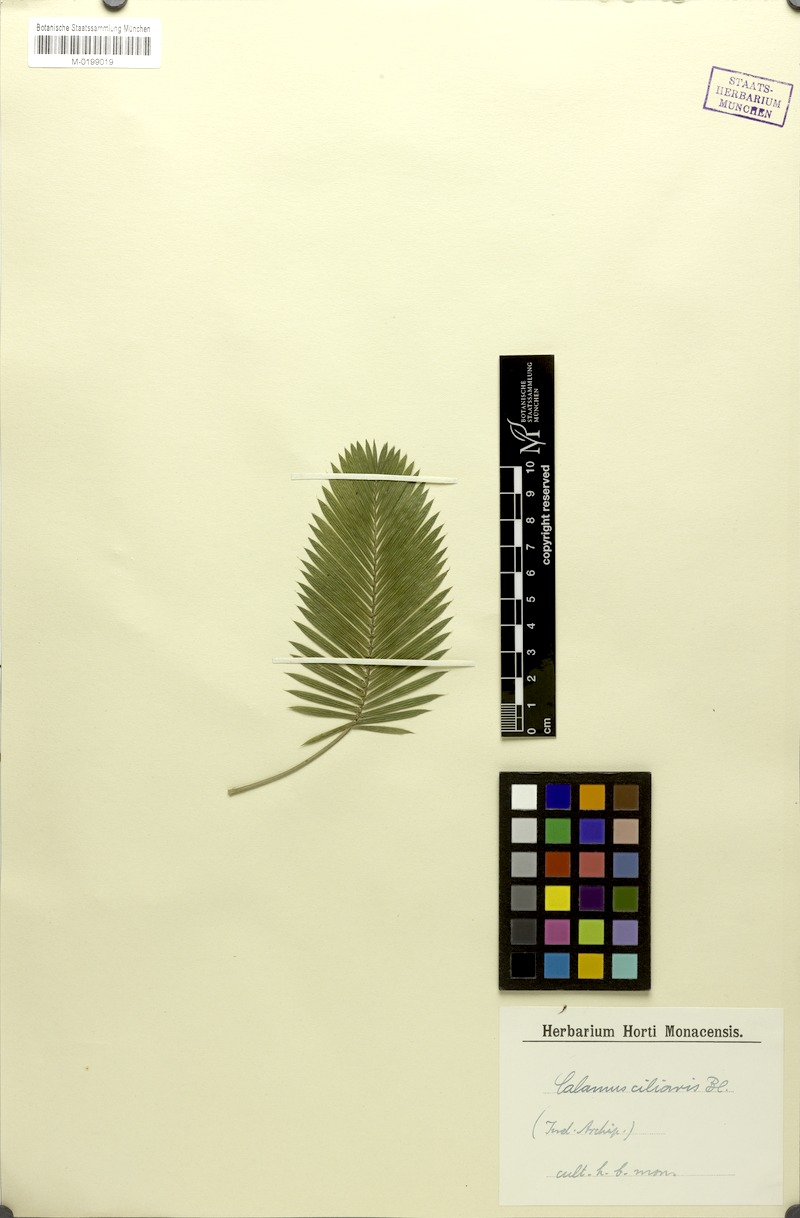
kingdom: Plantae
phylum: Tracheophyta
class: Liliopsida
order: Arecales
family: Arecaceae
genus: Calamus
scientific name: Calamus ciliaris
